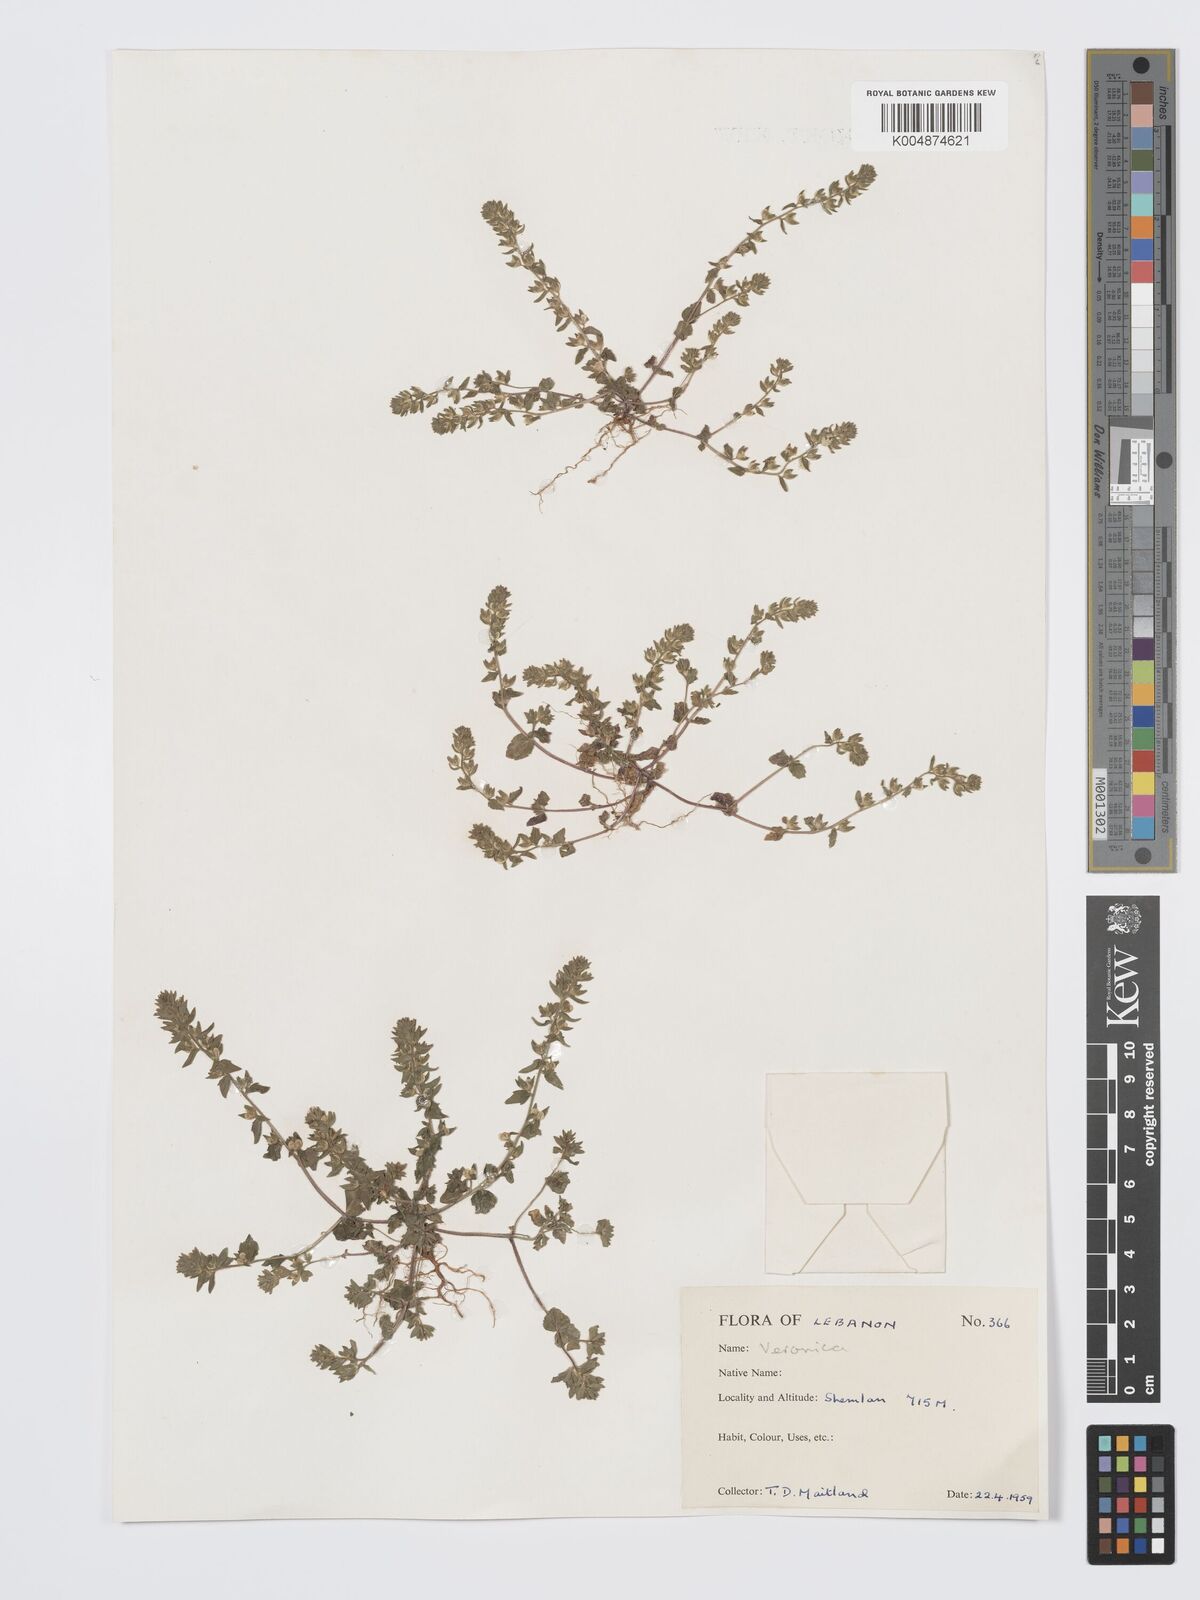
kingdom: Plantae
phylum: Tracheophyta
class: Magnoliopsida
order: Lamiales
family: Plantaginaceae
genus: Veronica
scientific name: Veronica
